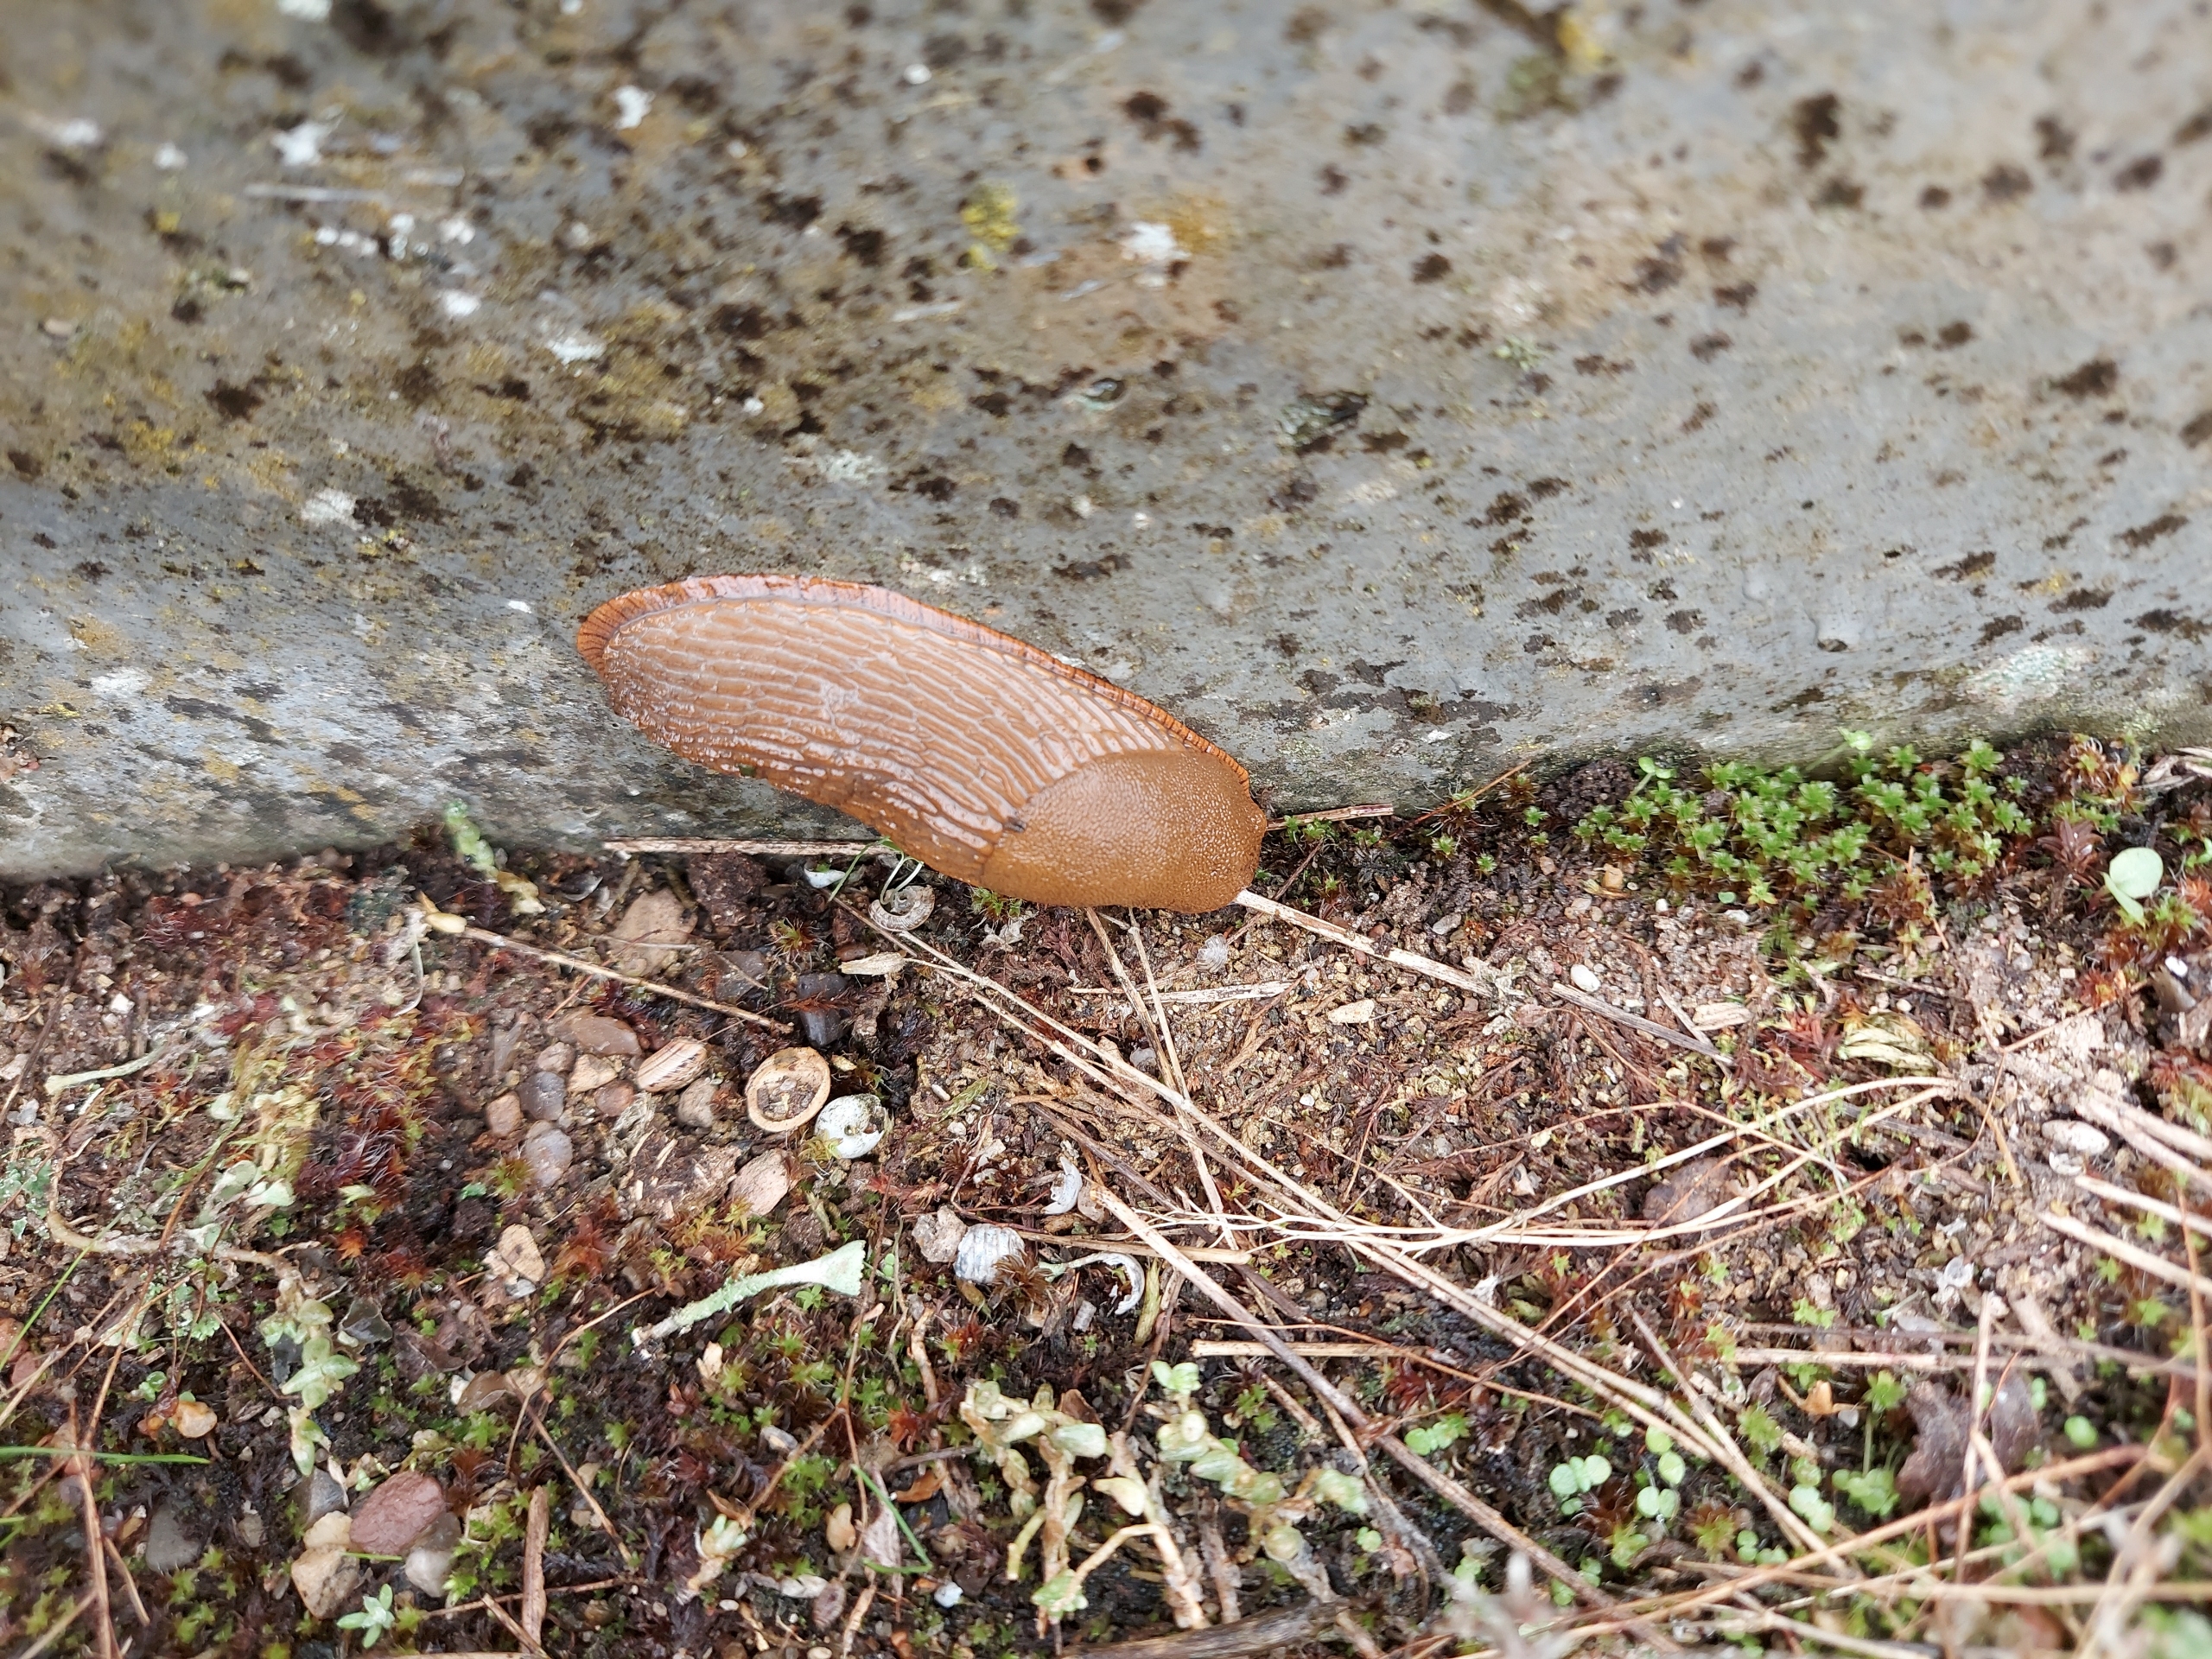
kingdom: Animalia
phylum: Mollusca
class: Gastropoda
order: Stylommatophora
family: Arionidae
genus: Arion
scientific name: Arion vulgaris
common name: Iberisk skovsnegl
